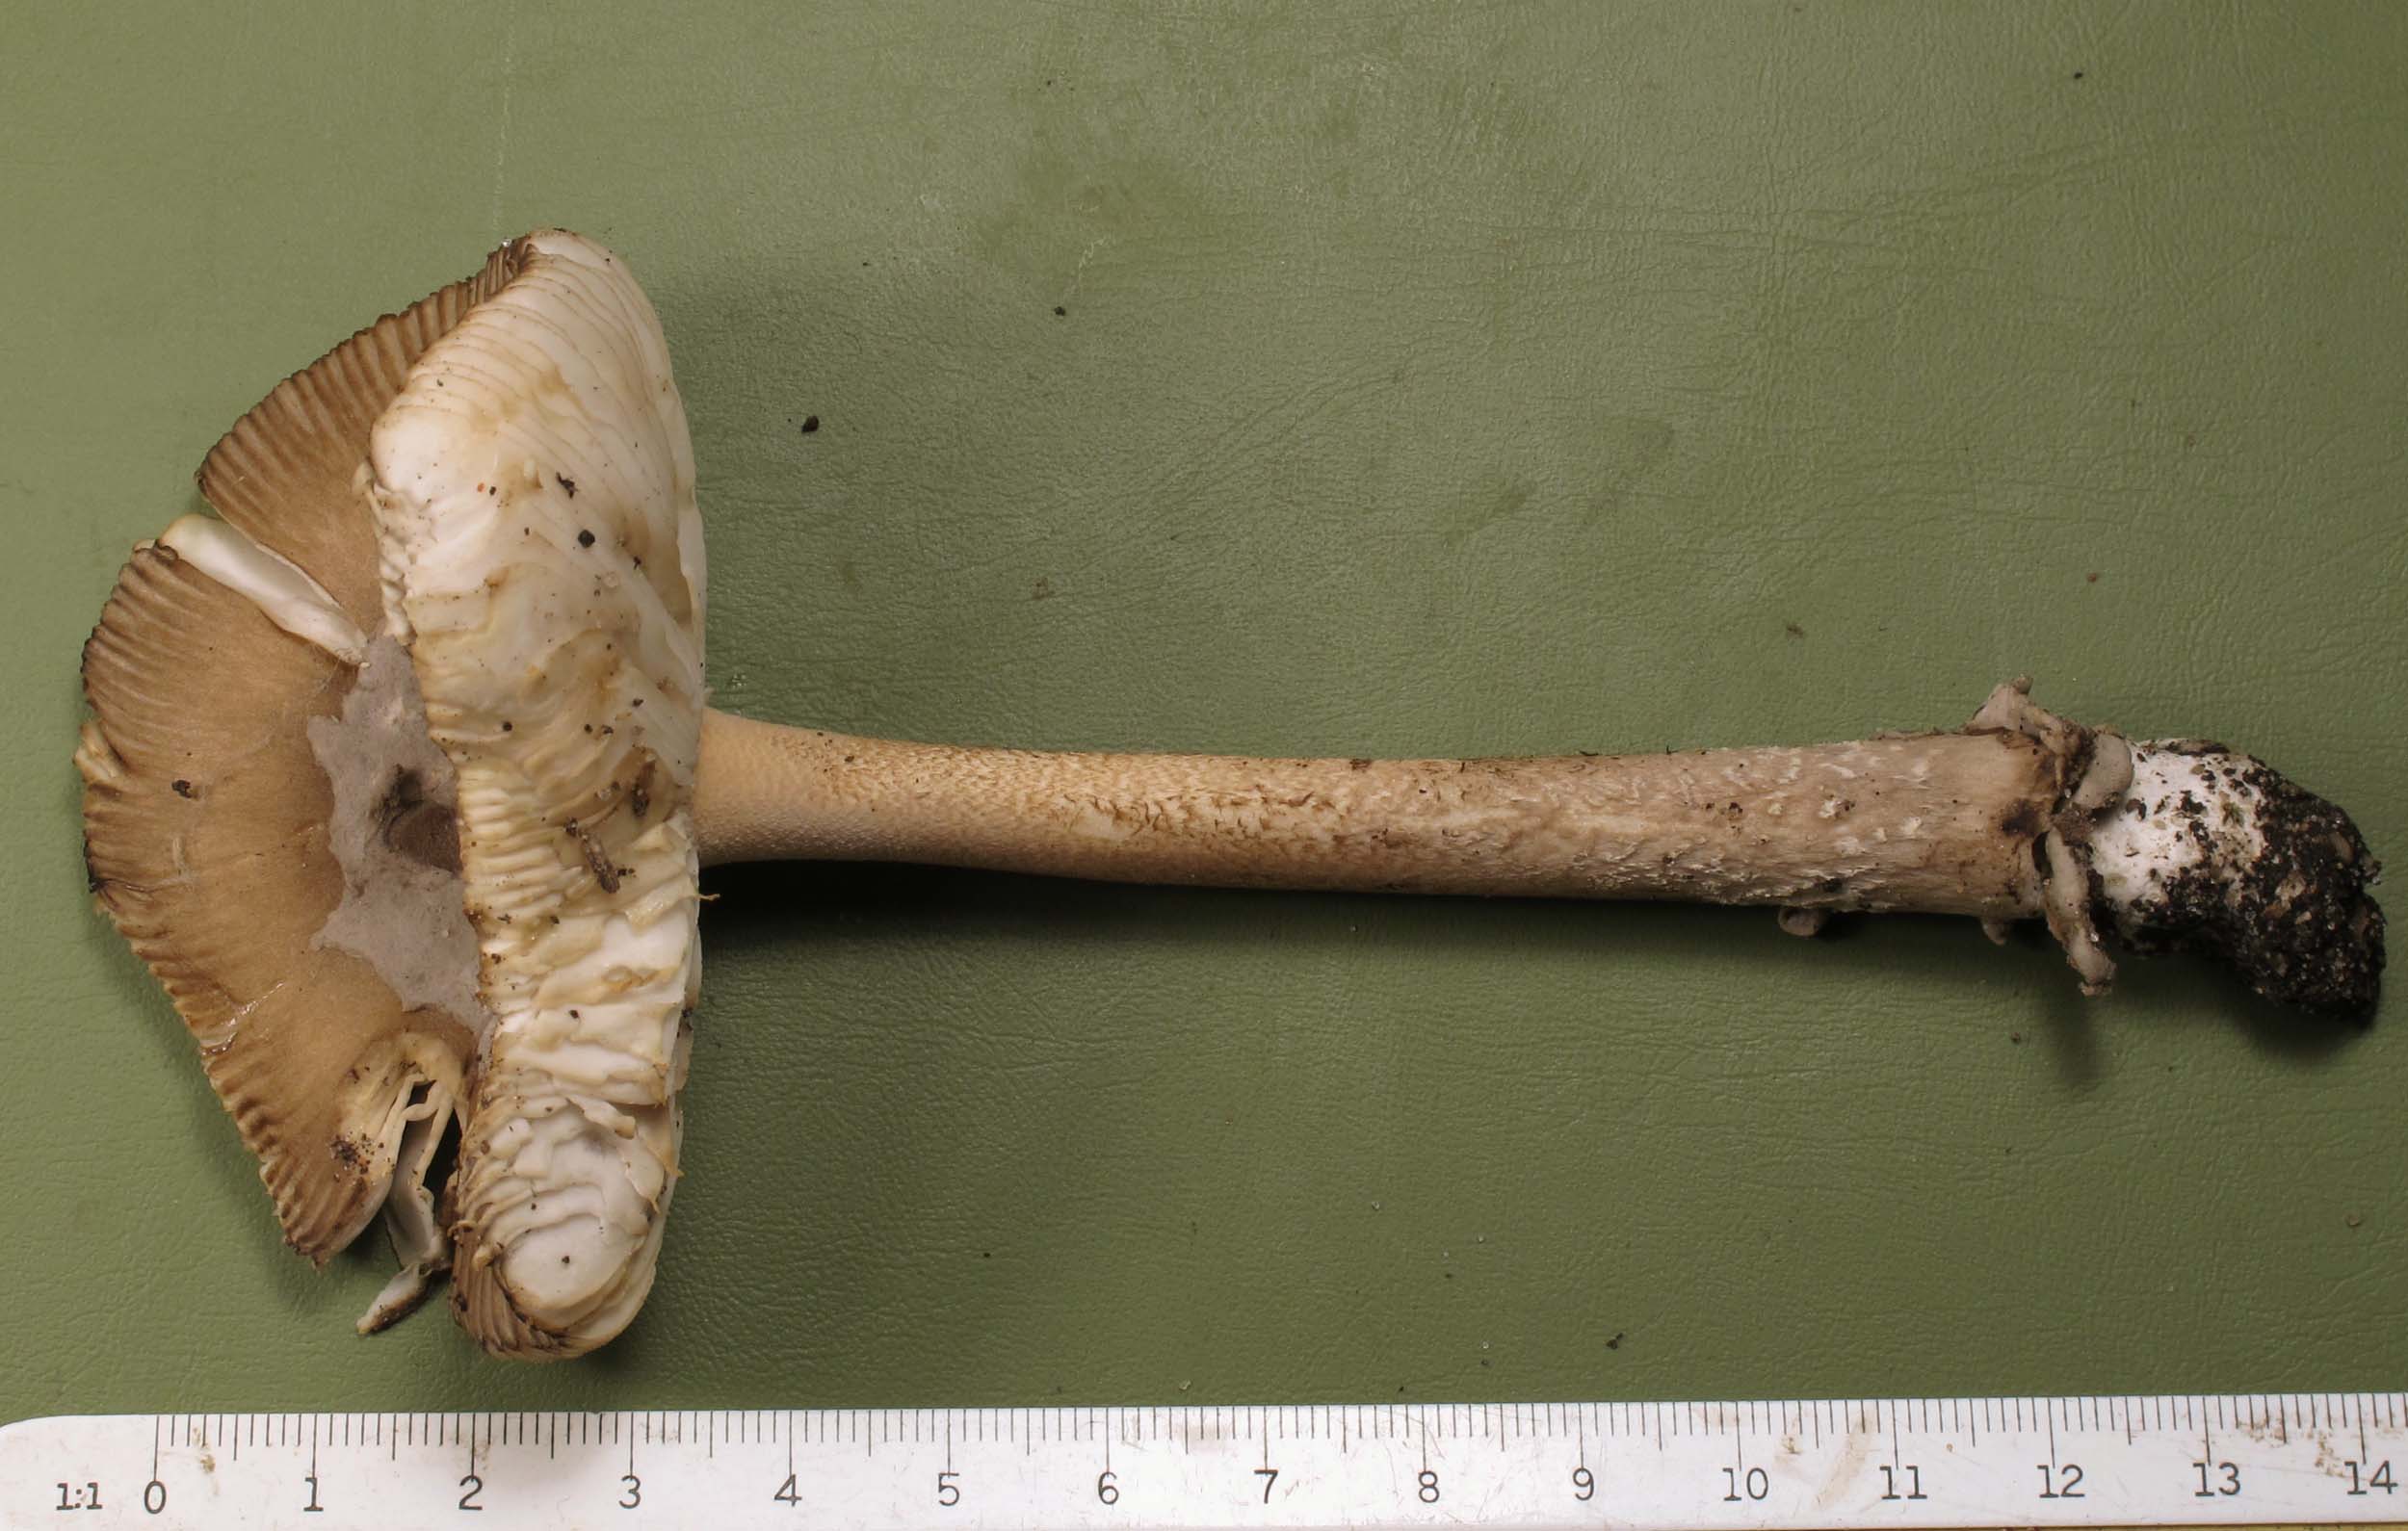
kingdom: Fungi
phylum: Basidiomycota
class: Agaricomycetes
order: Agaricales
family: Amanitaceae
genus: Amanita
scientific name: Amanita submembranacea
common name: gråspættet kam-fluesvamp
